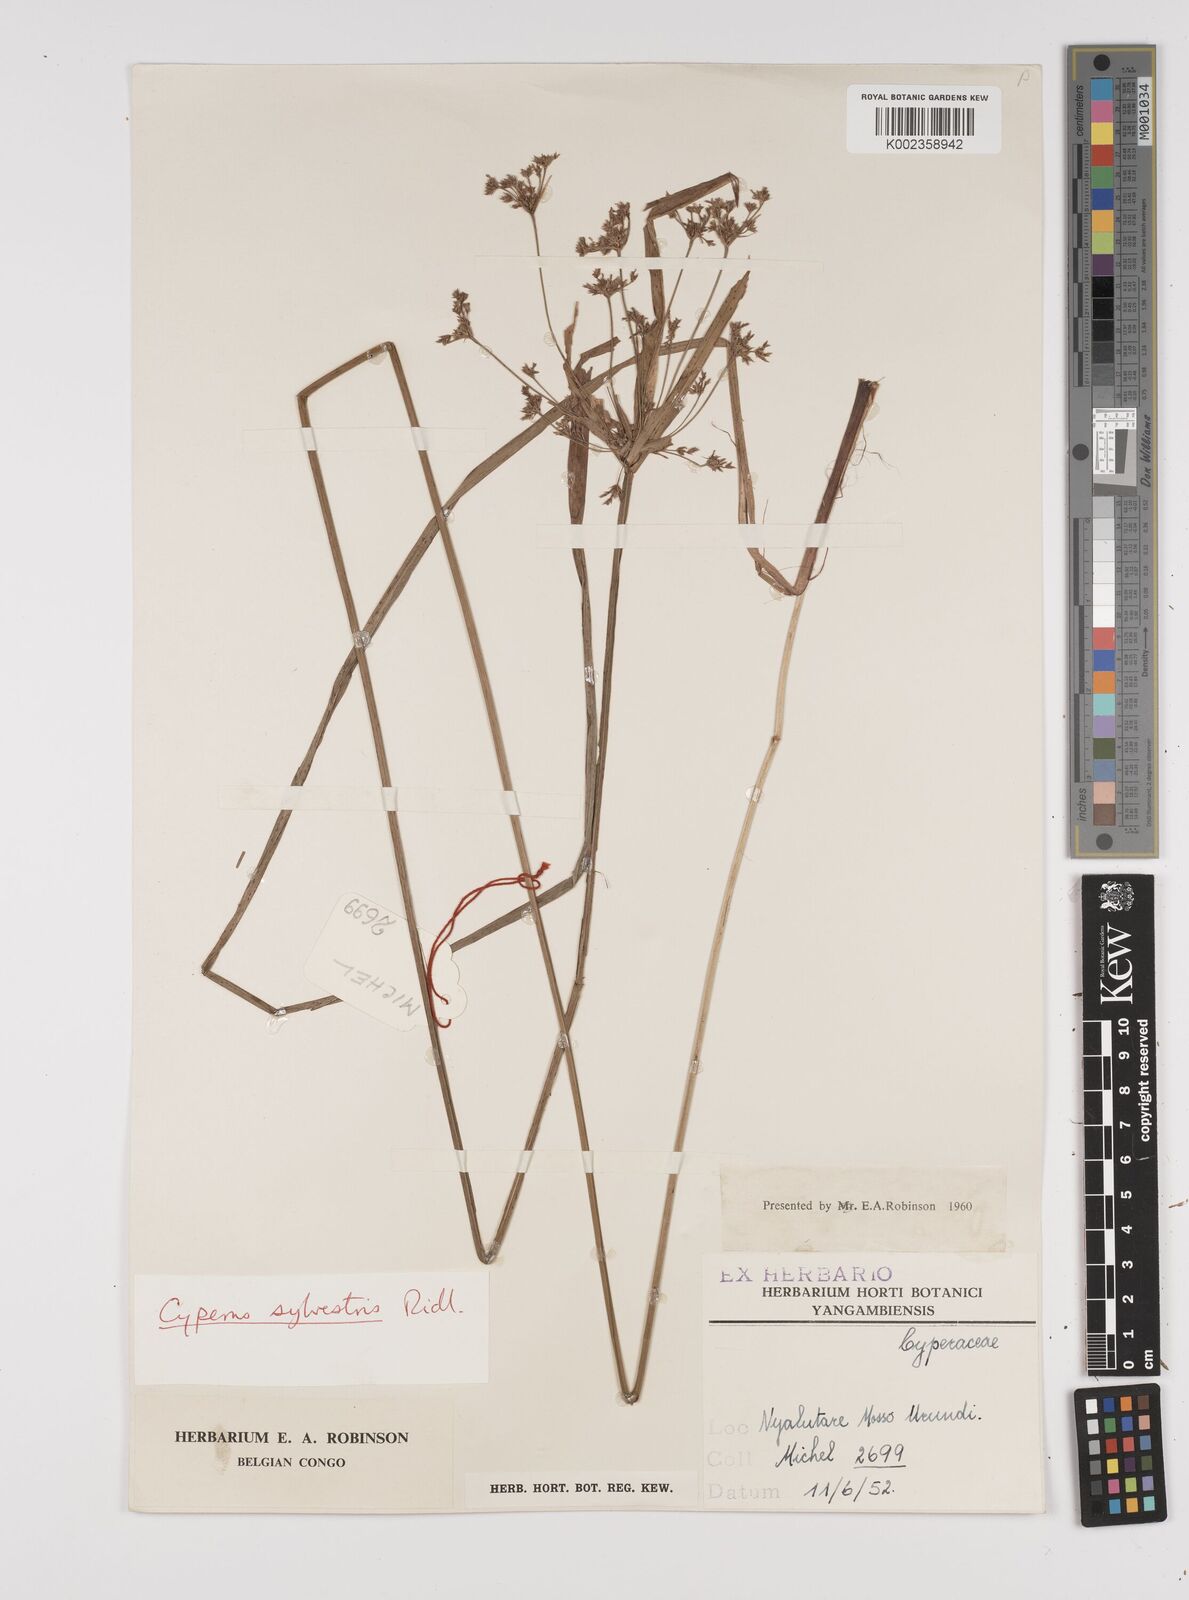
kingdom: Plantae
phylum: Tracheophyta
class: Liliopsida
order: Poales
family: Cyperaceae
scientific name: Cyperaceae
